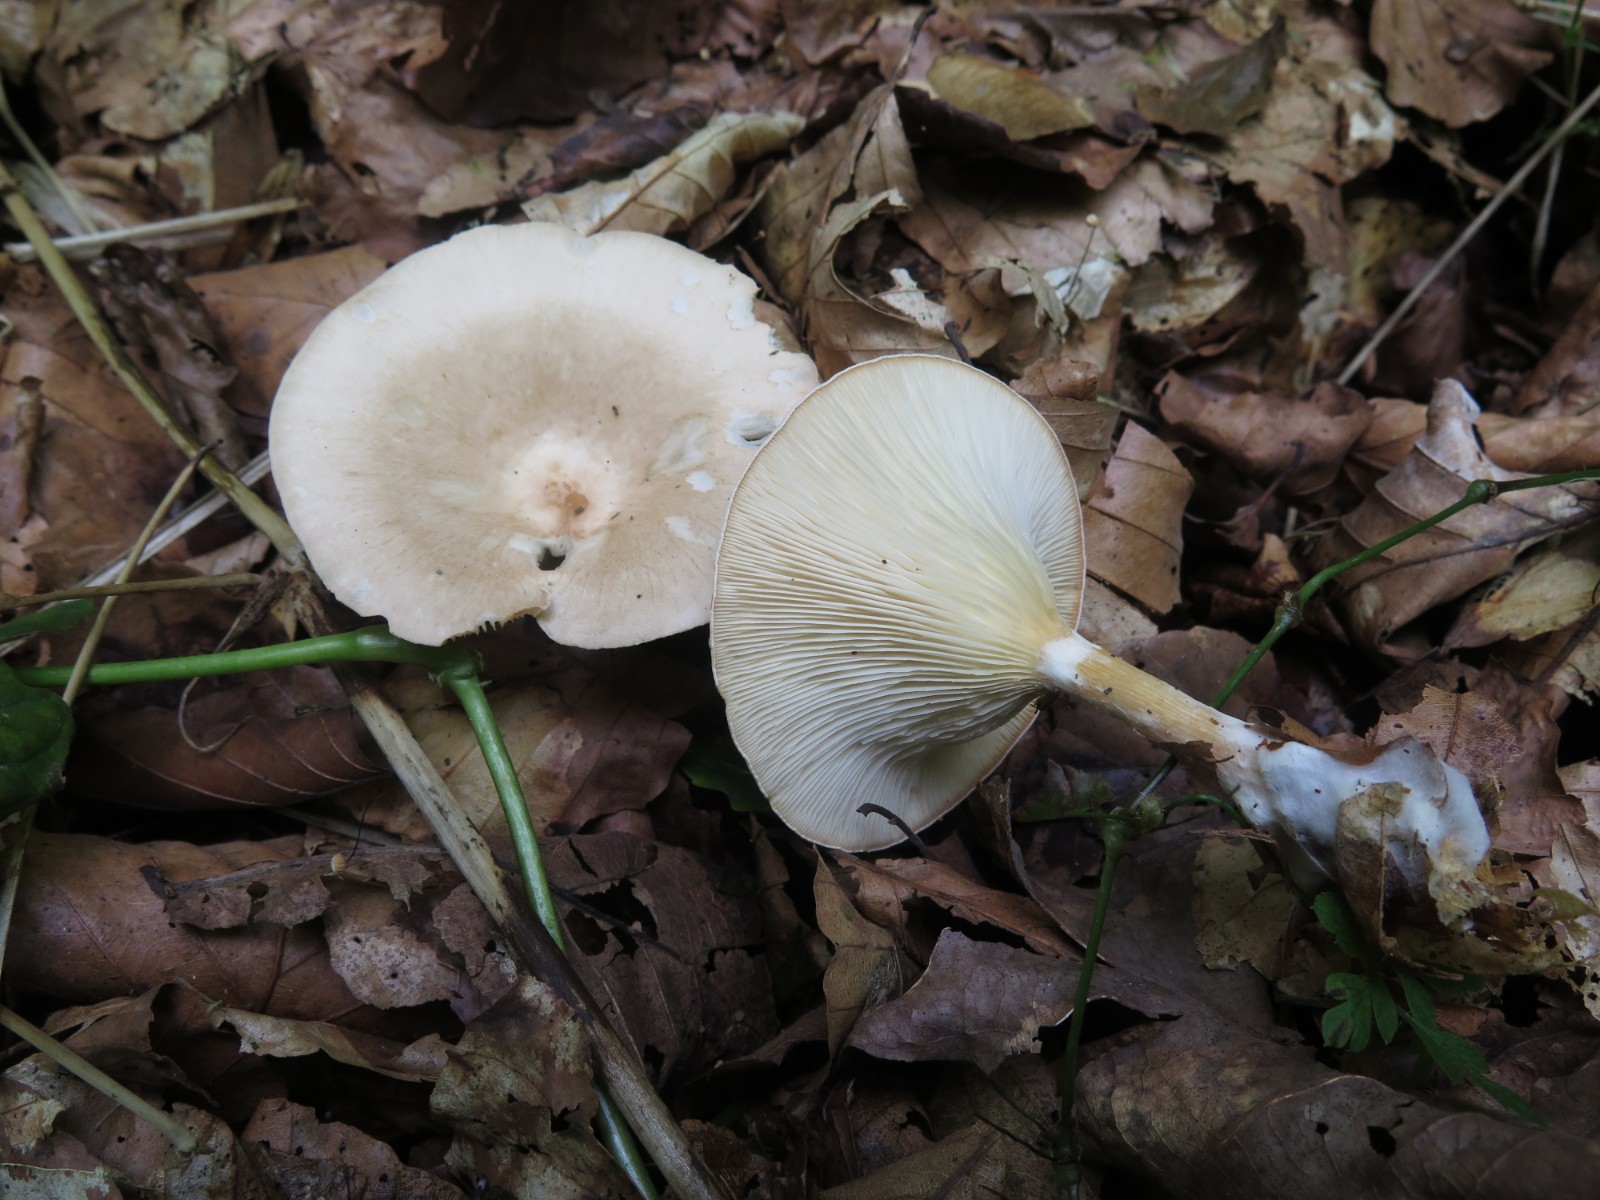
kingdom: Fungi
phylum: Basidiomycota
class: Agaricomycetes
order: Agaricales
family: Hygrophoraceae
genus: Ampulloclitocybe
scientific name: Ampulloclitocybe clavipes
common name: køllefod
